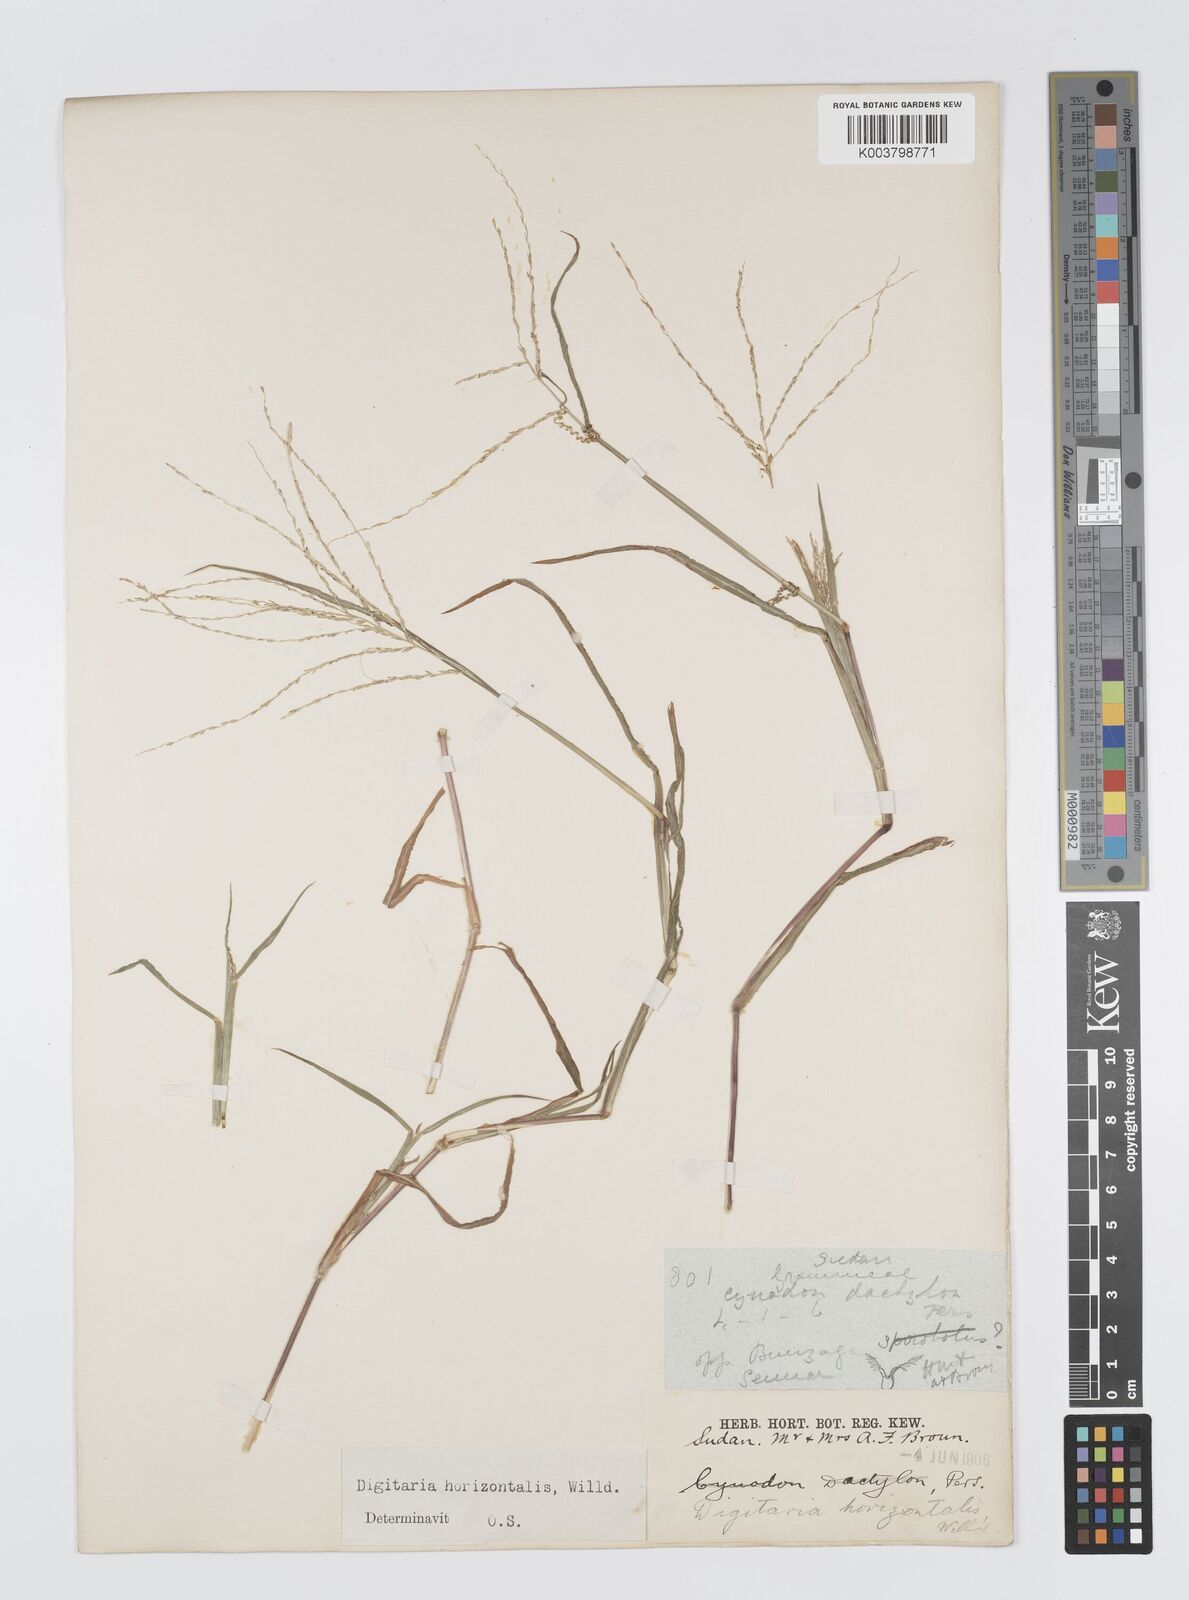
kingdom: Plantae
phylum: Tracheophyta
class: Liliopsida
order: Poales
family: Poaceae
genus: Digitaria
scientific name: Digitaria debilis
